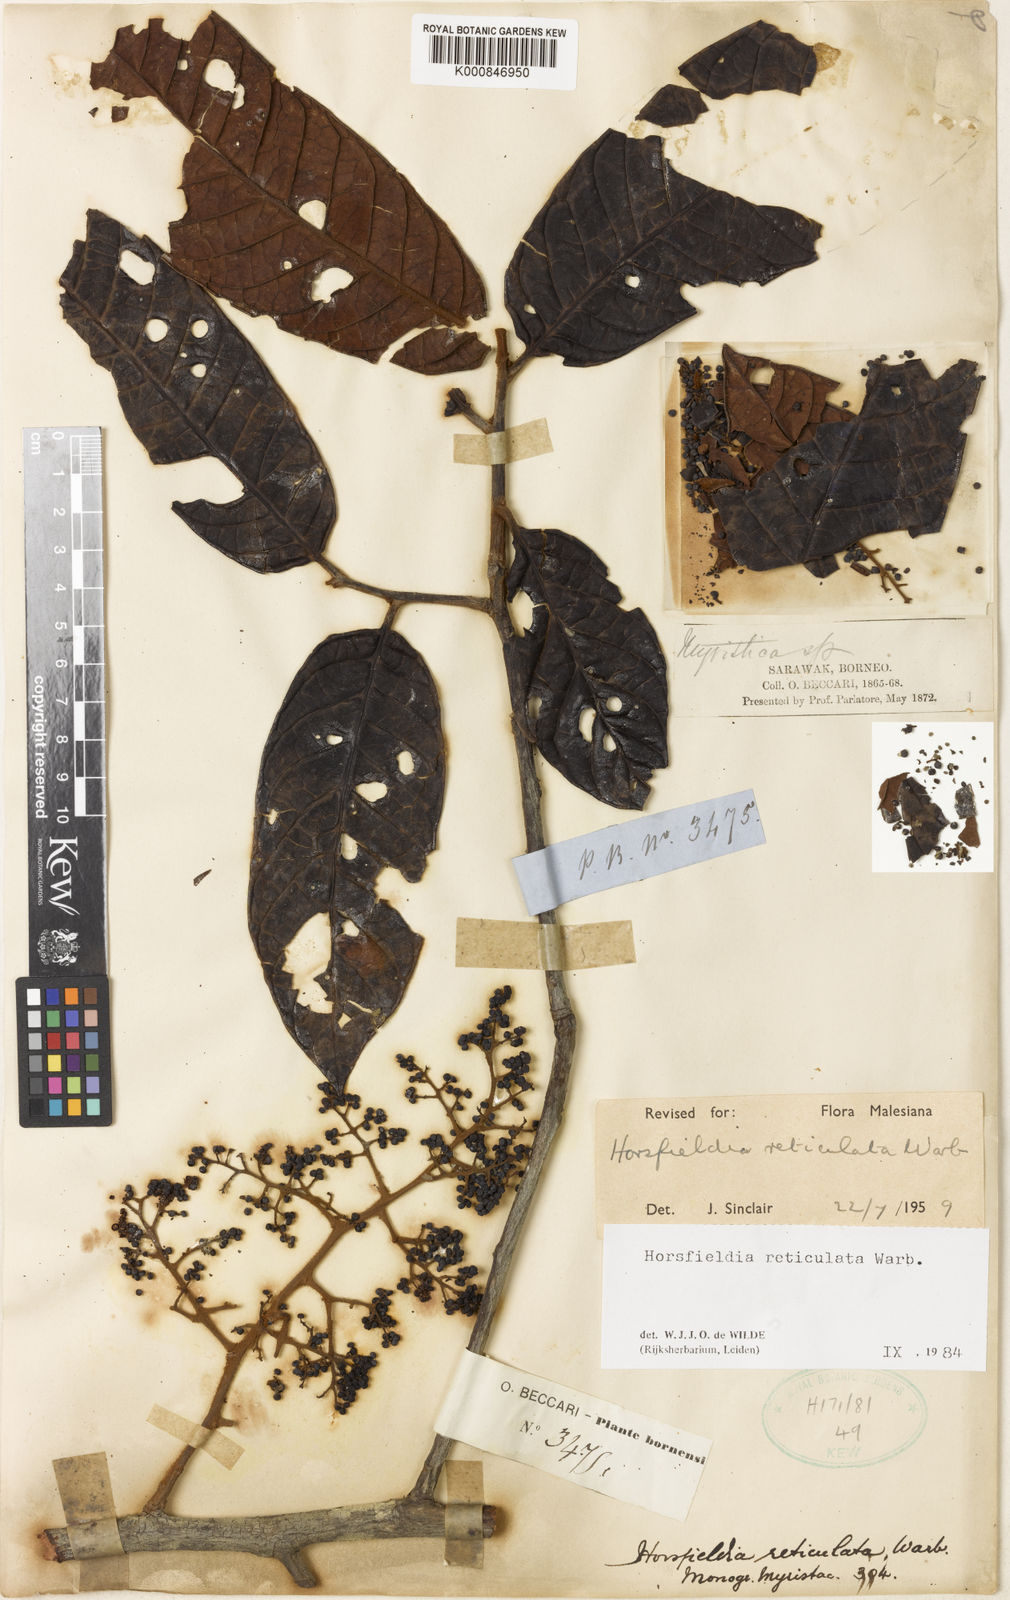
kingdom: Plantae
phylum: Tracheophyta
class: Magnoliopsida
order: Magnoliales
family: Myristicaceae
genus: Horsfieldia
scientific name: Horsfieldia reticulata
